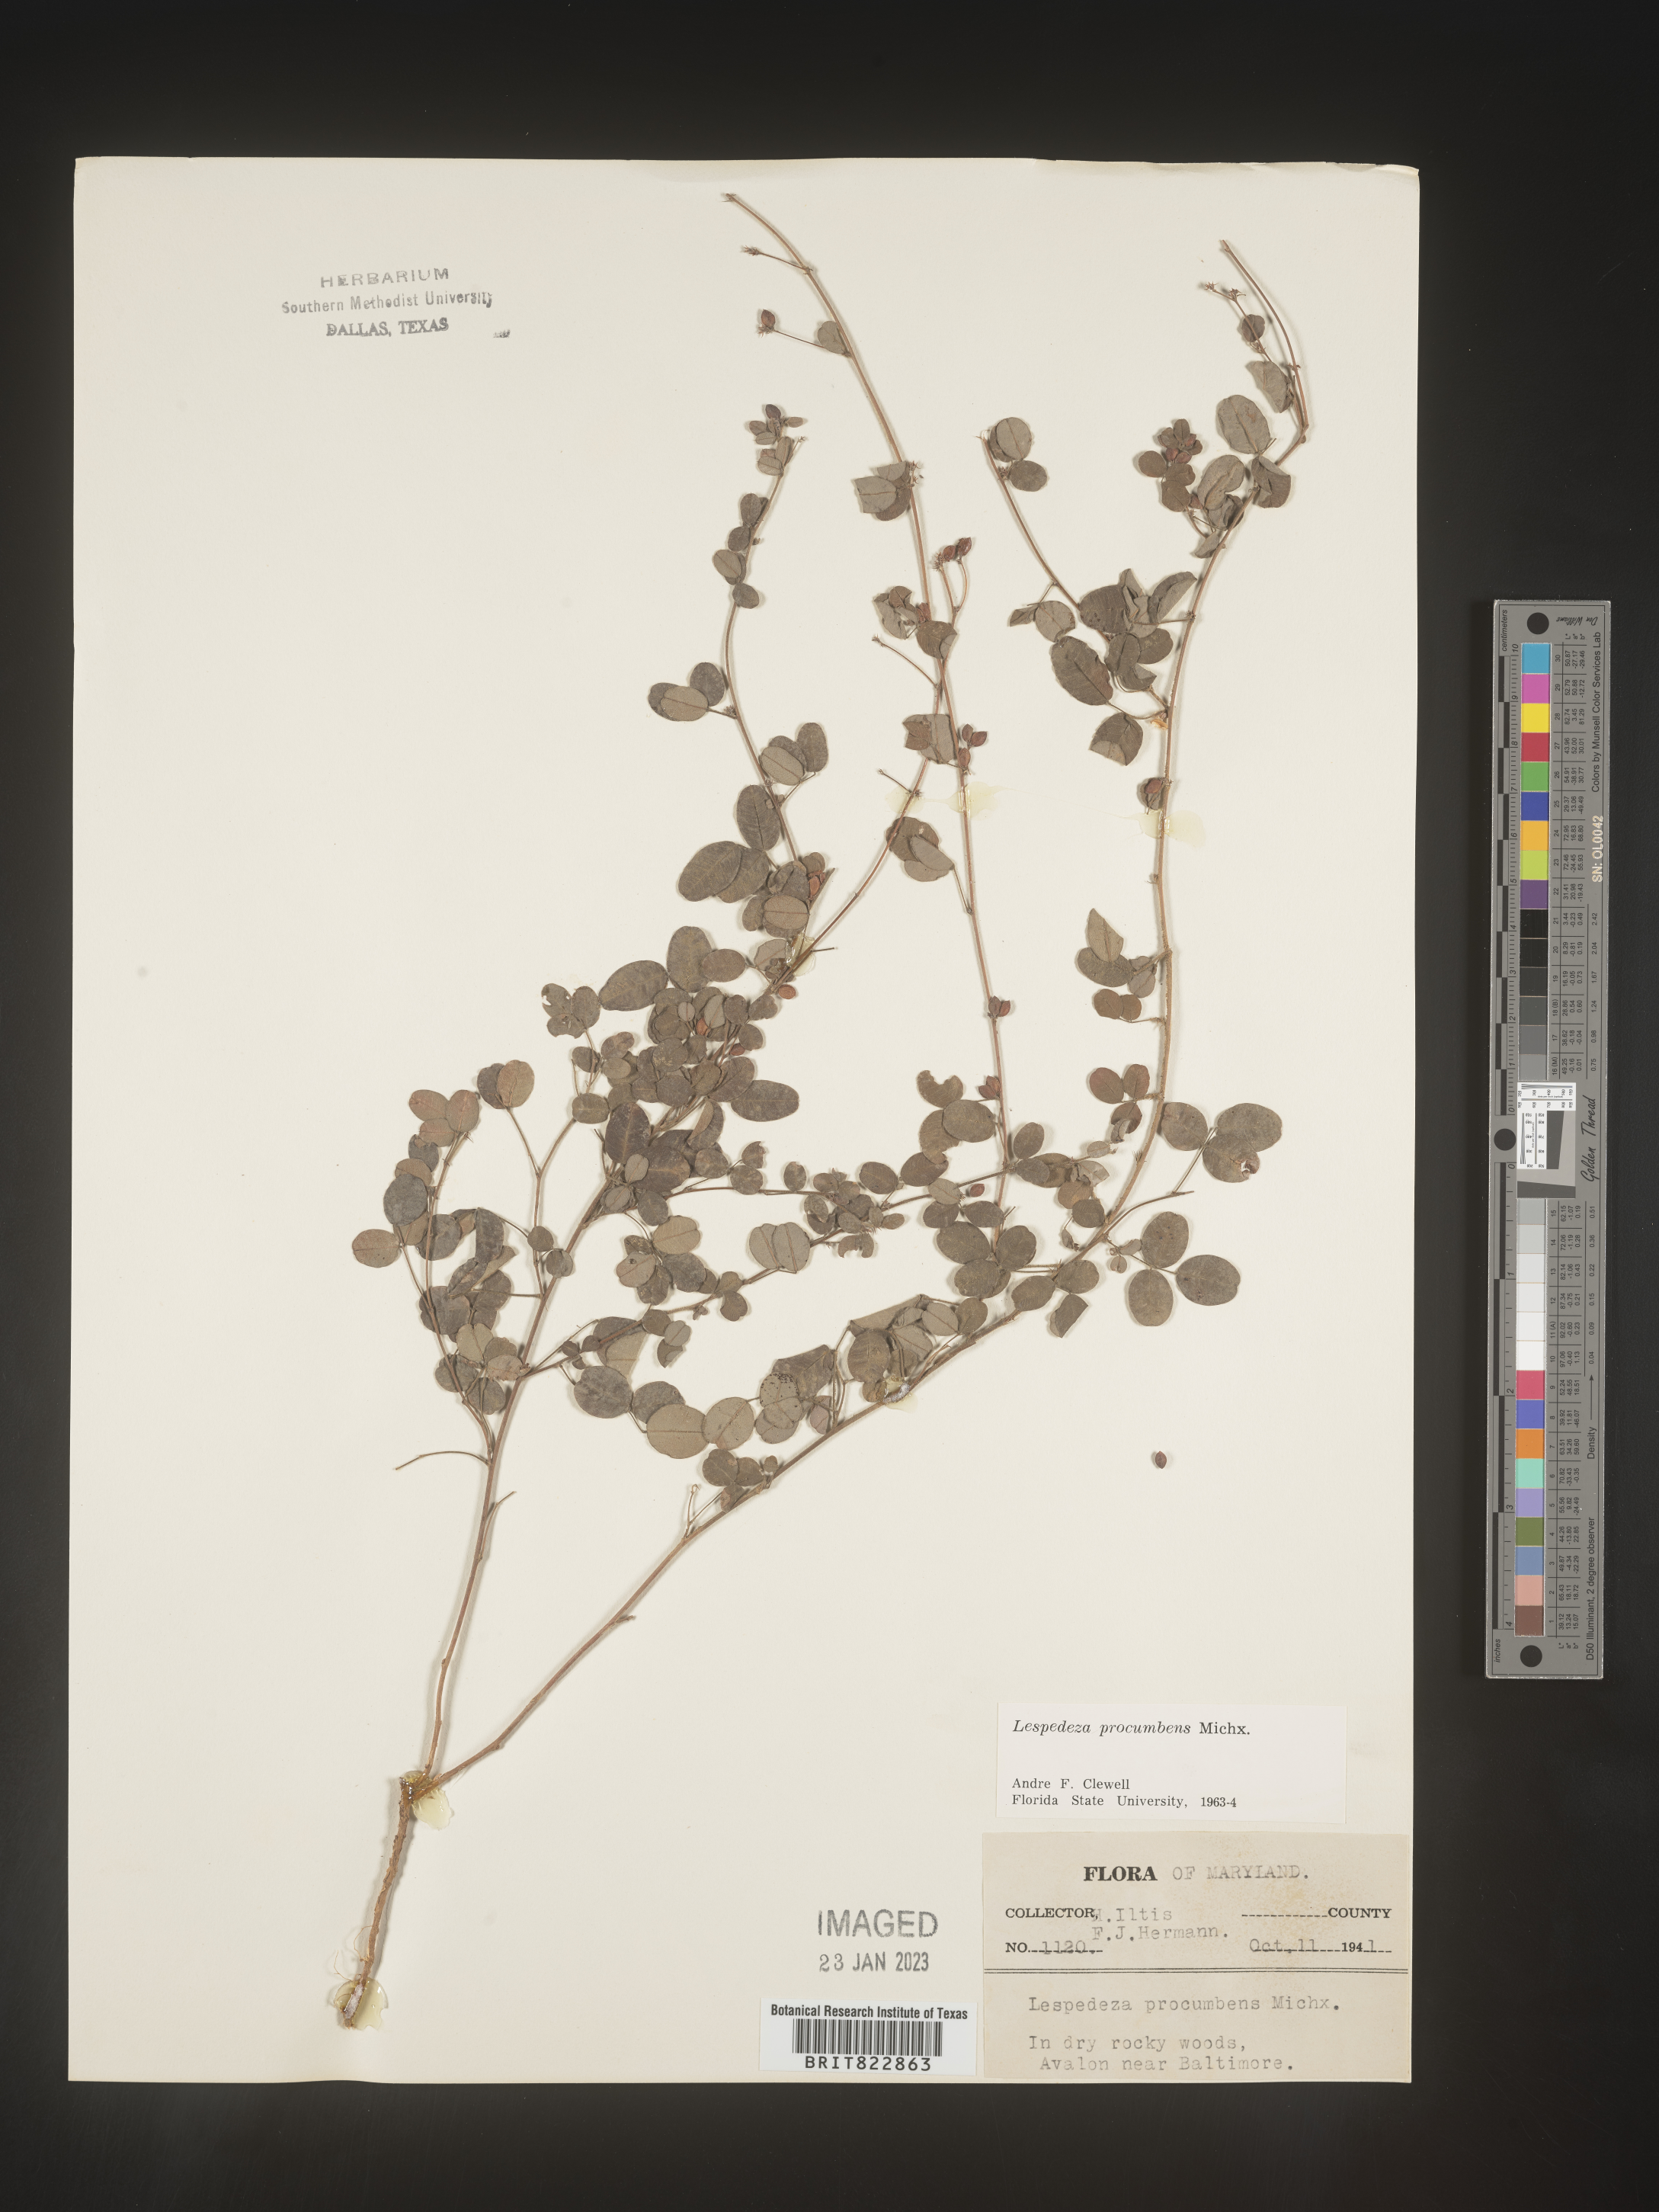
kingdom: Plantae
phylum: Tracheophyta
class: Magnoliopsida
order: Fabales
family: Fabaceae
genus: Lespedeza
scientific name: Lespedeza procumbens
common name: Downy trailing bush-clover
